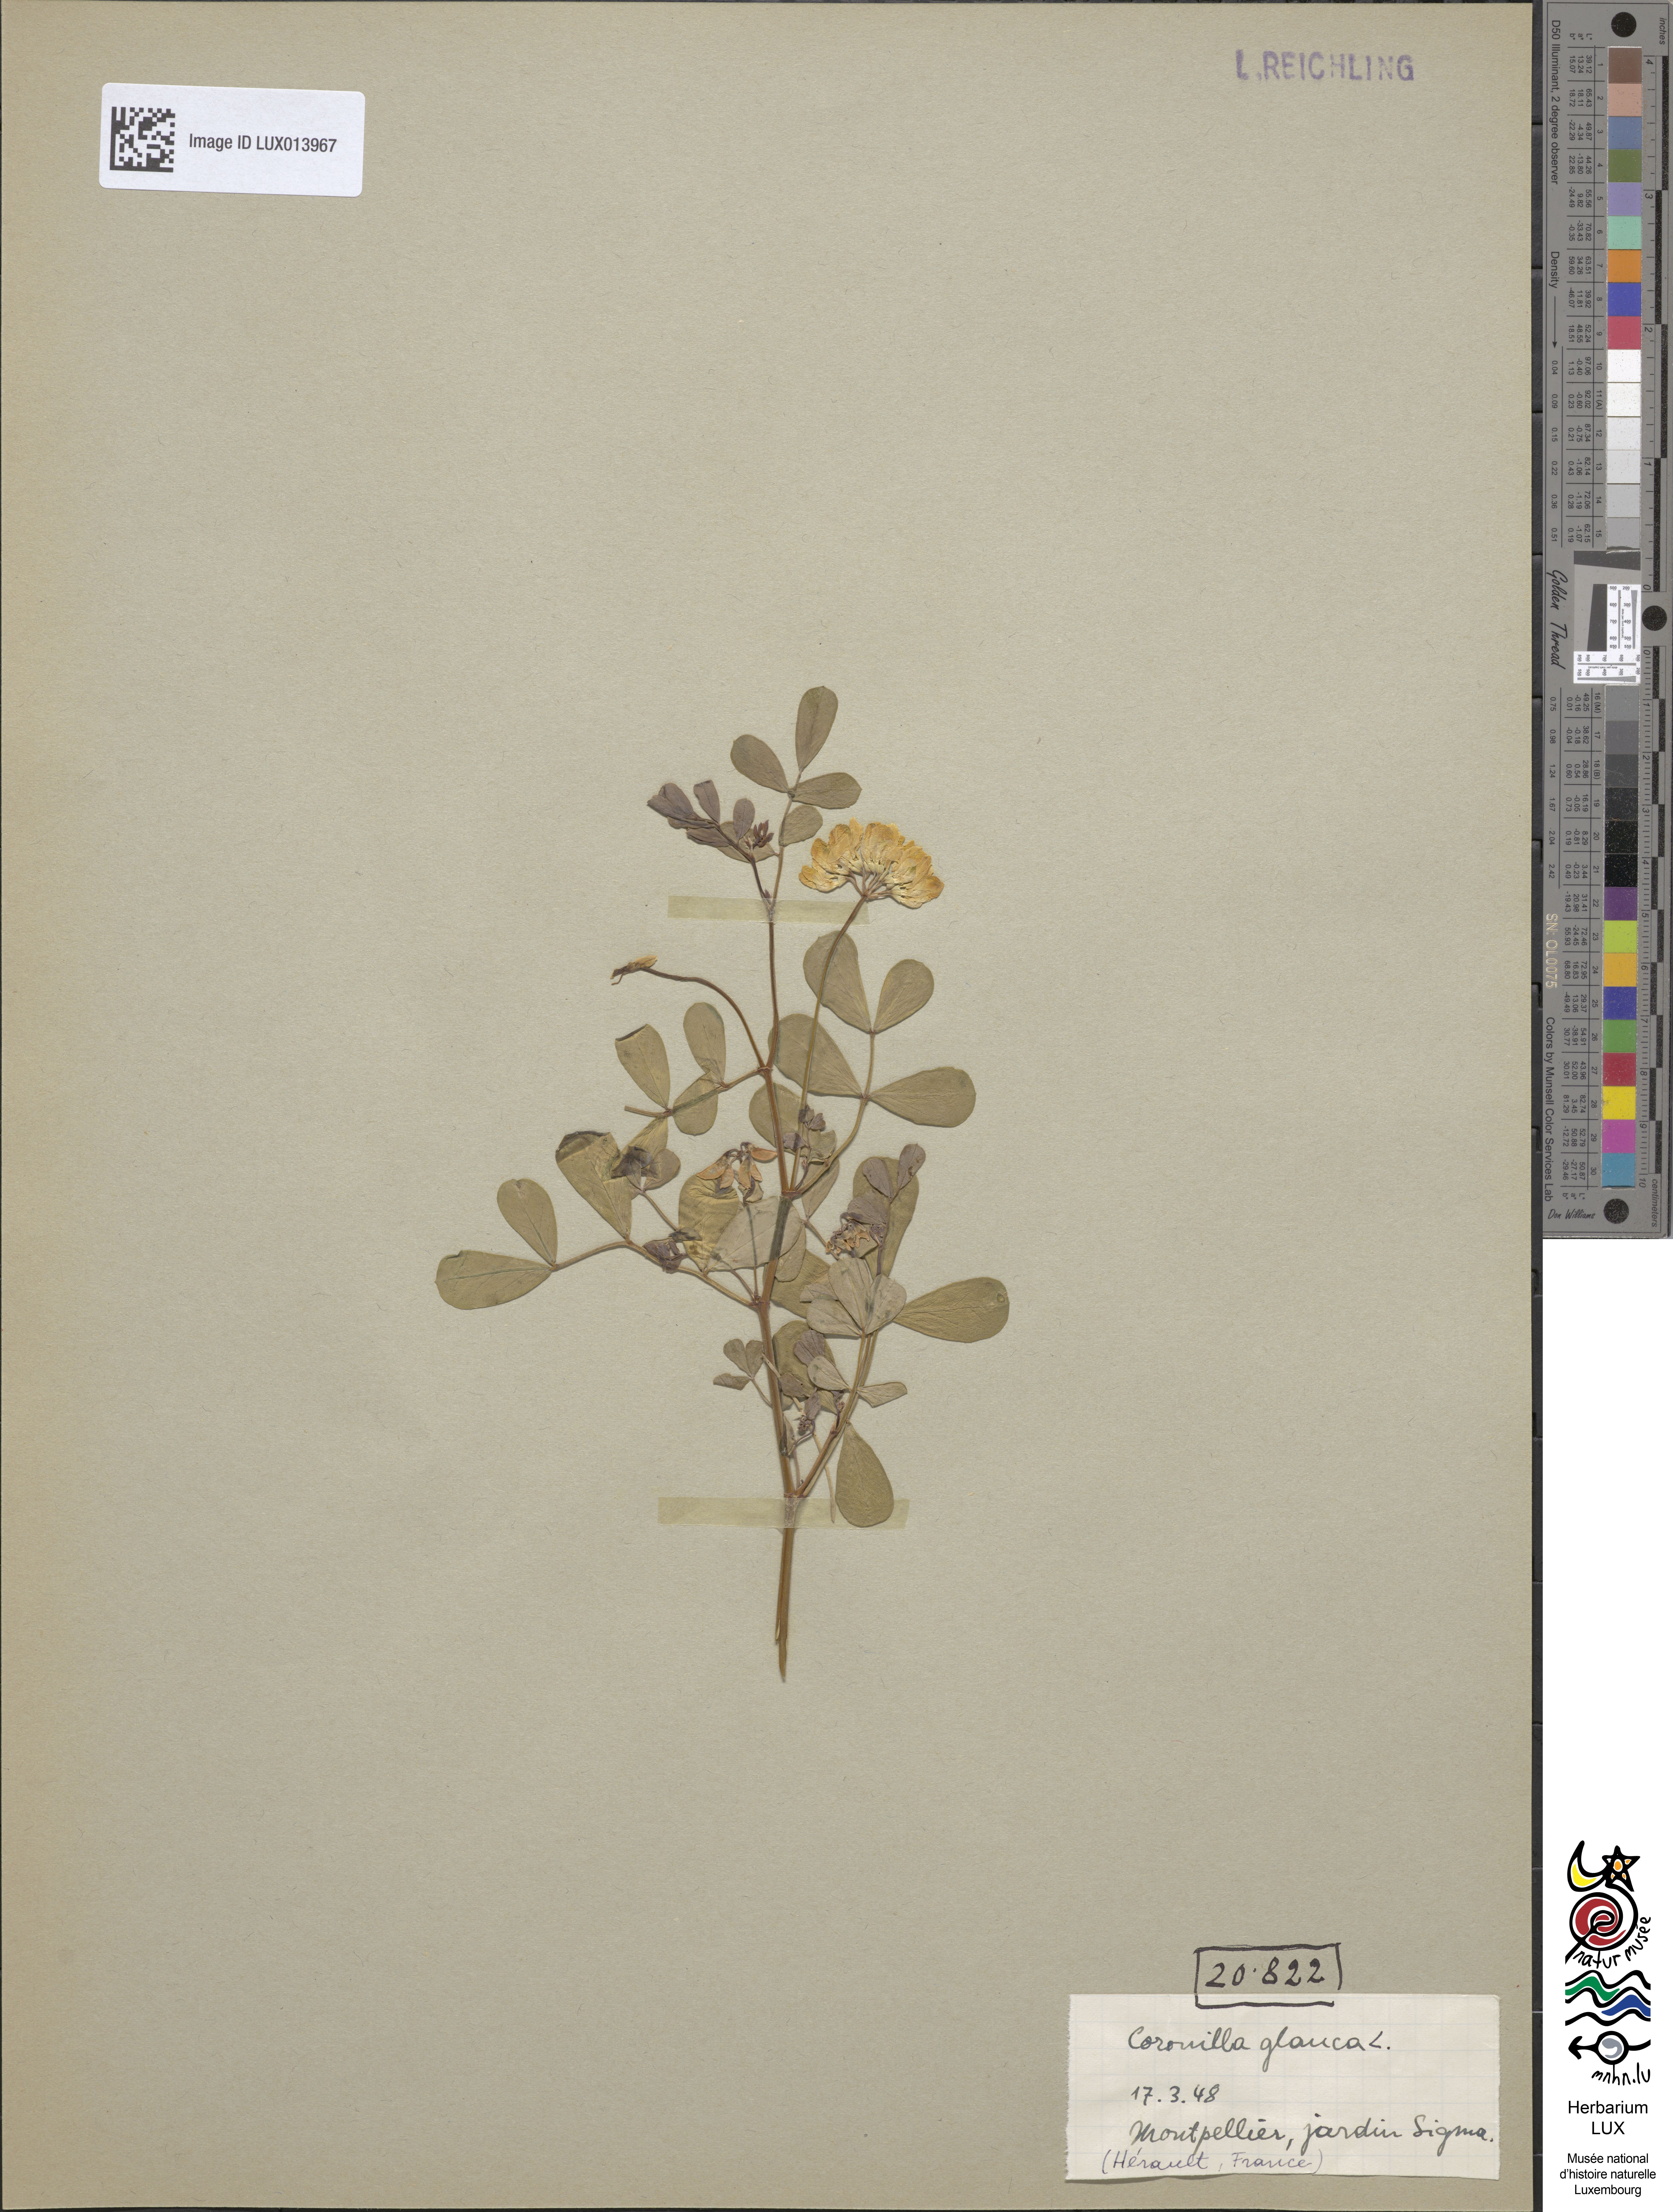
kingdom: Plantae
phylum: Tracheophyta
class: Magnoliopsida
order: Fabales
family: Fabaceae
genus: Coronilla
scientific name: Coronilla valentina
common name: Shrubby scorpion-vetch
